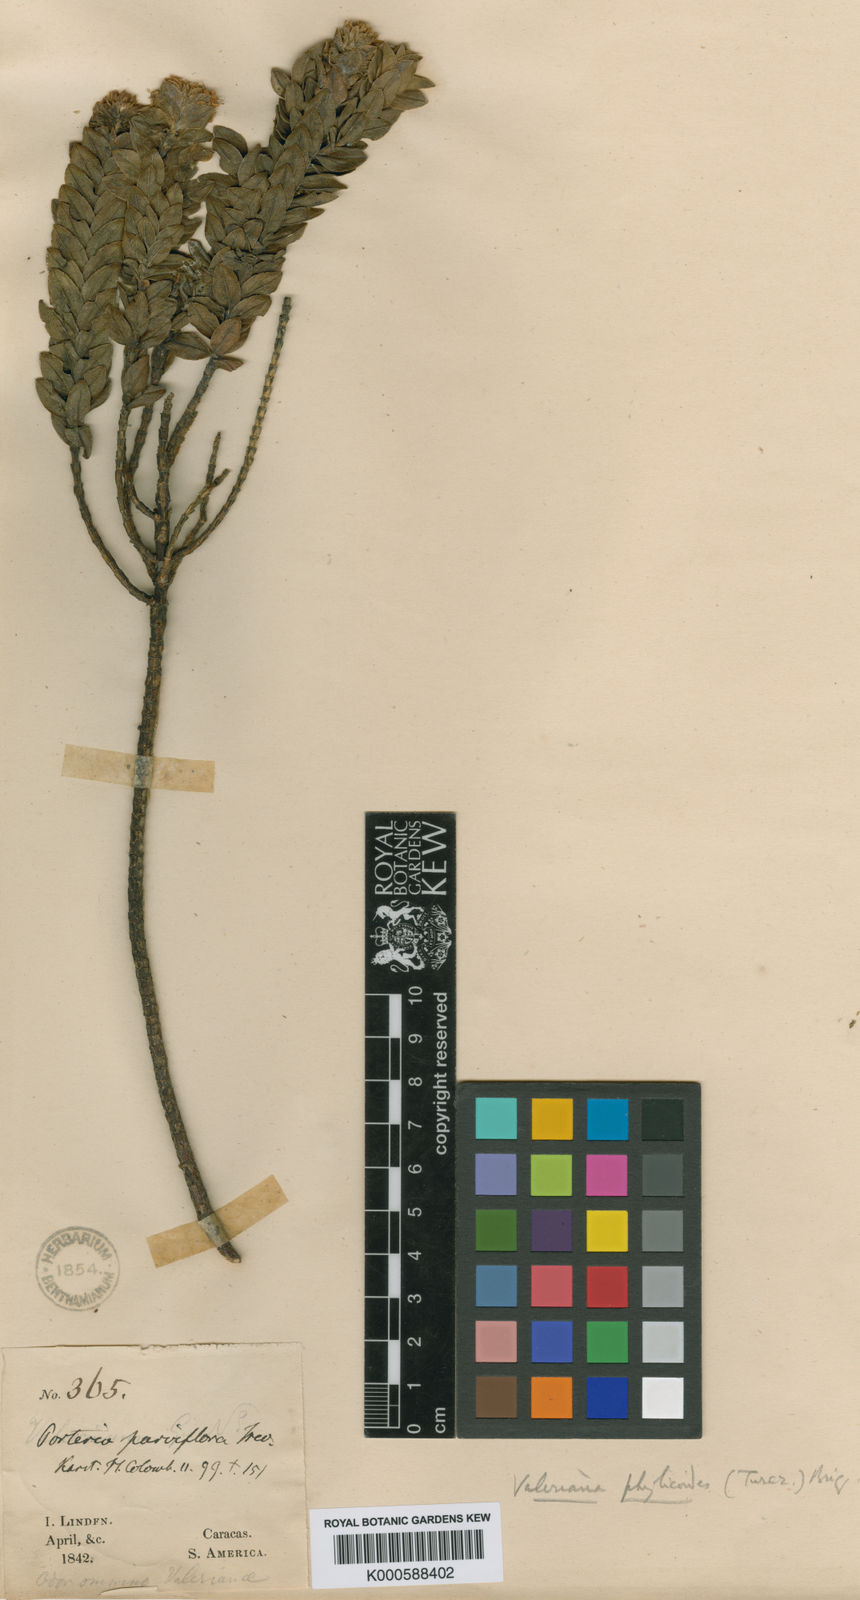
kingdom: Plantae
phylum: Tracheophyta
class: Magnoliopsida
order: Dipsacales
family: Caprifoliaceae
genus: Valeriana
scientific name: Valeriana phylicoides
